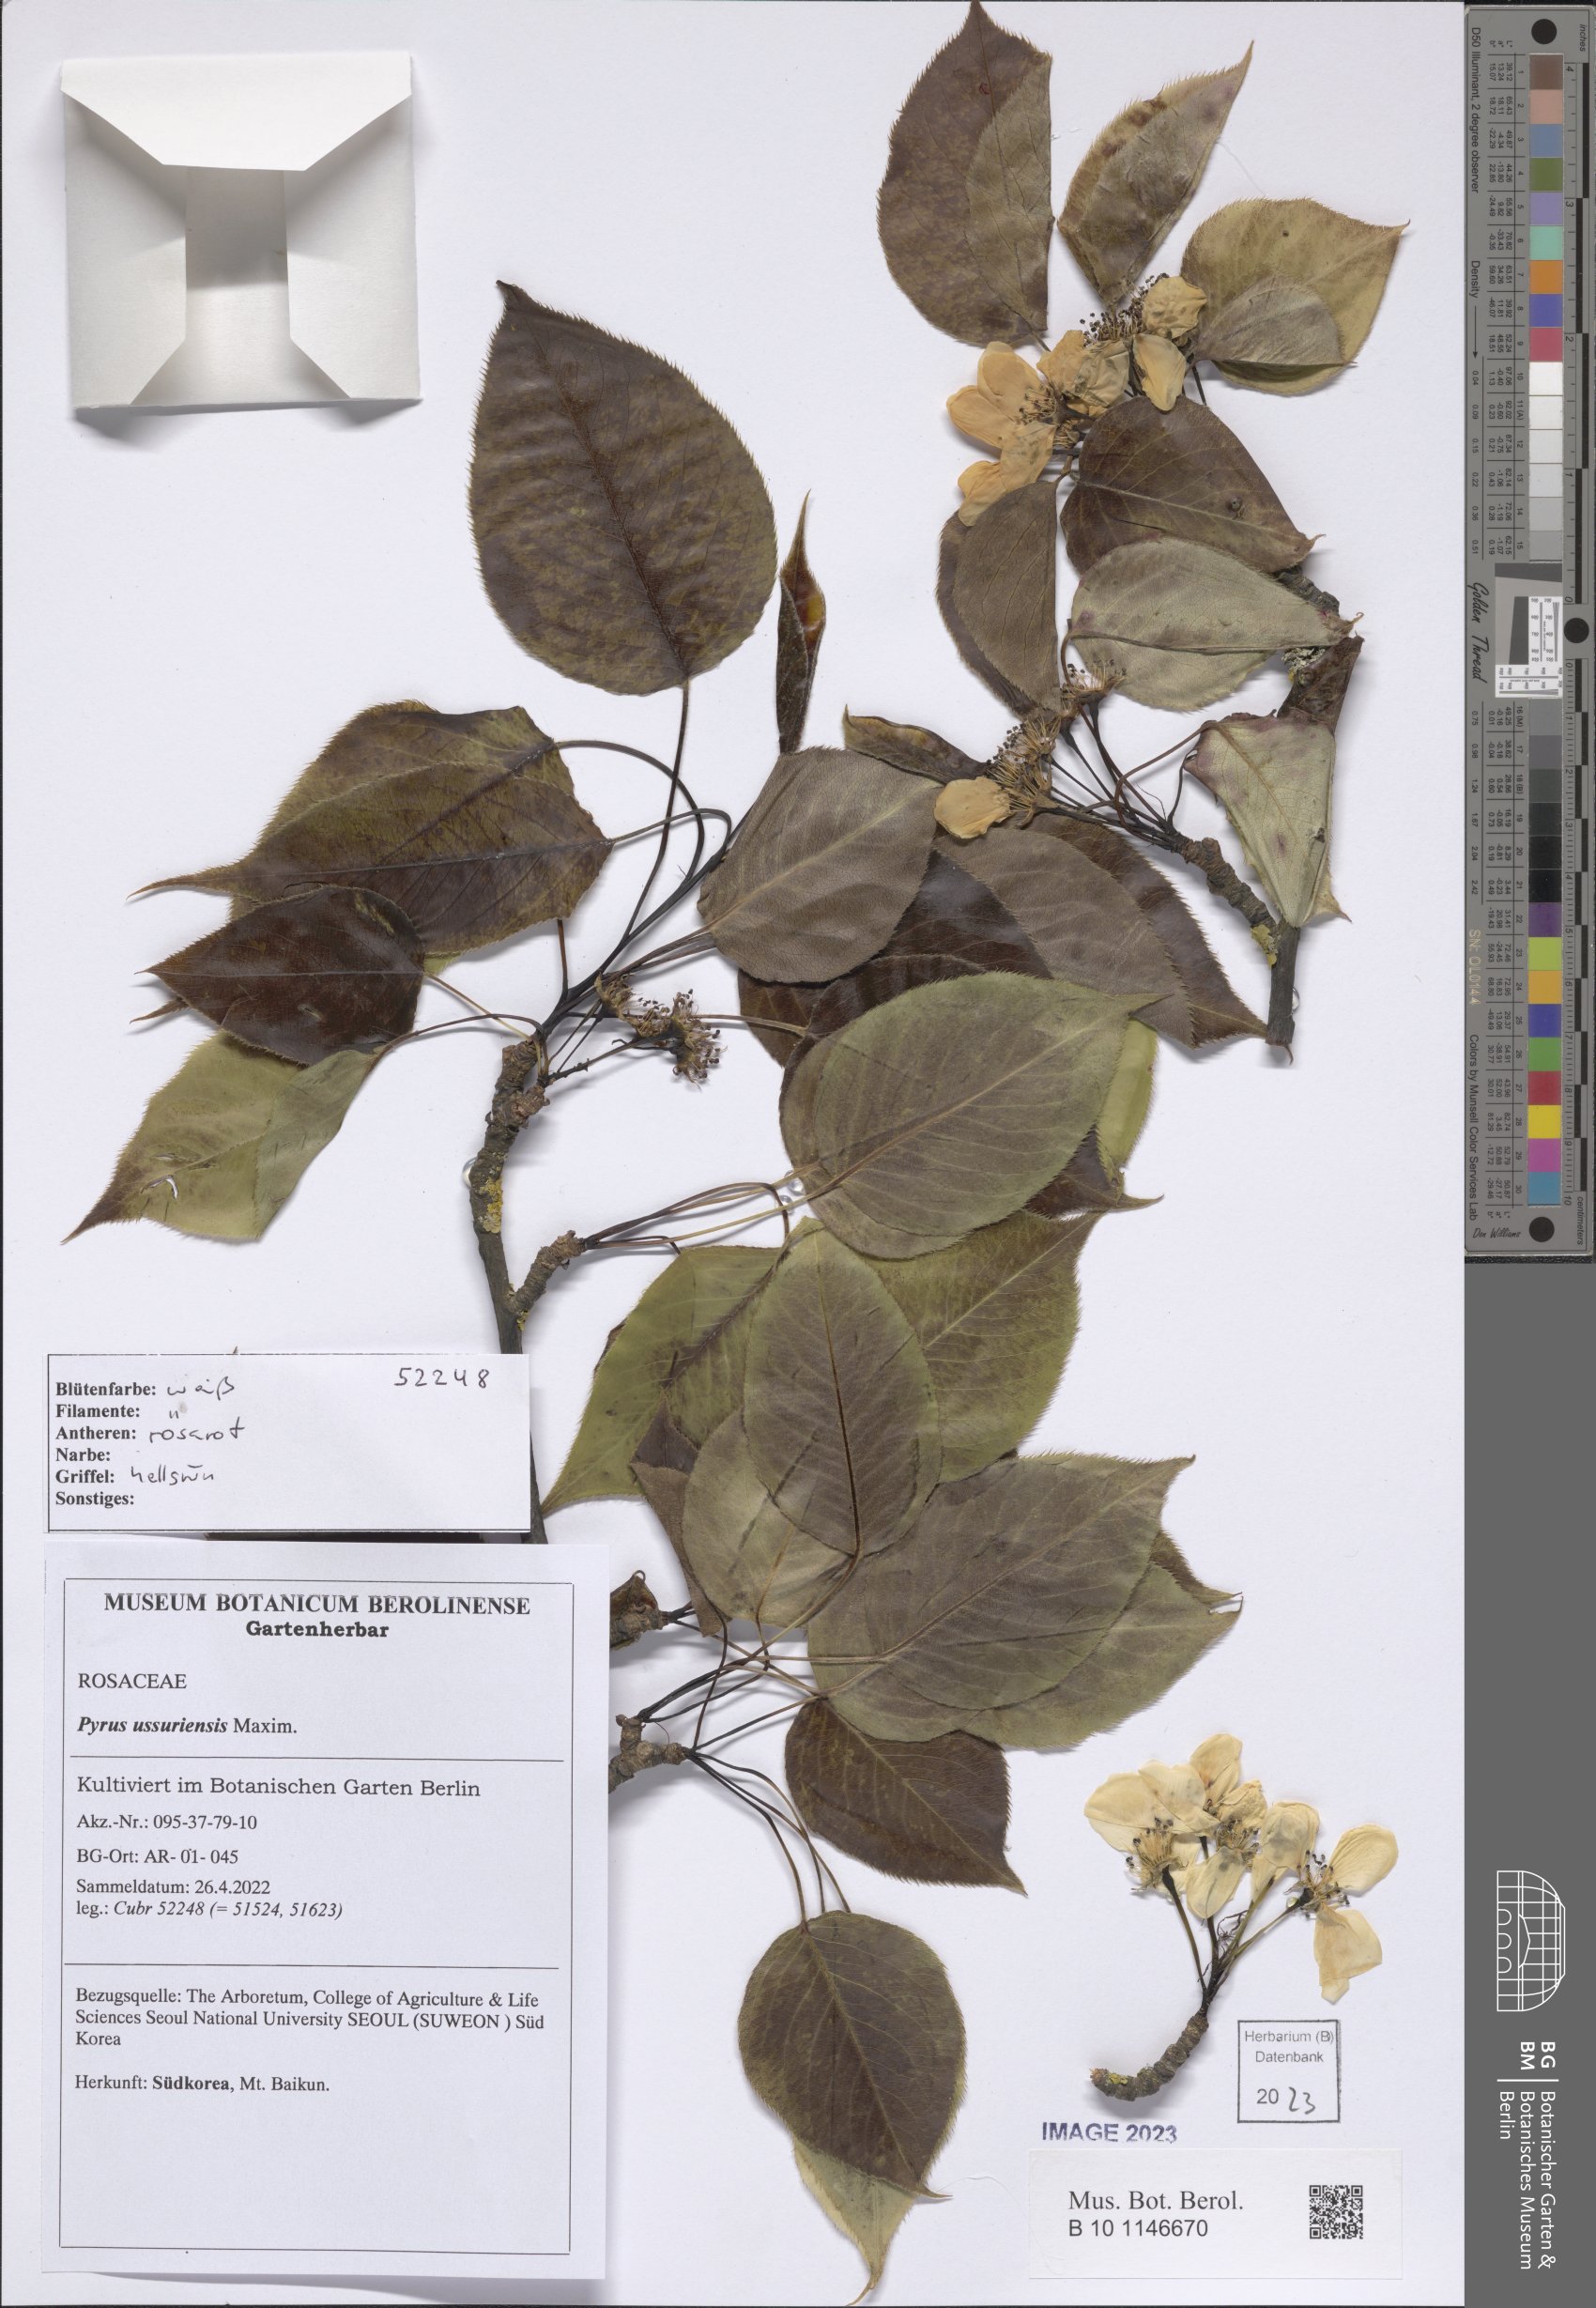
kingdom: Plantae
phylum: Tracheophyta
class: Magnoliopsida
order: Rosales
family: Rosaceae
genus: Pyrus
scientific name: Pyrus ussuriensis
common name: Harbin pear
